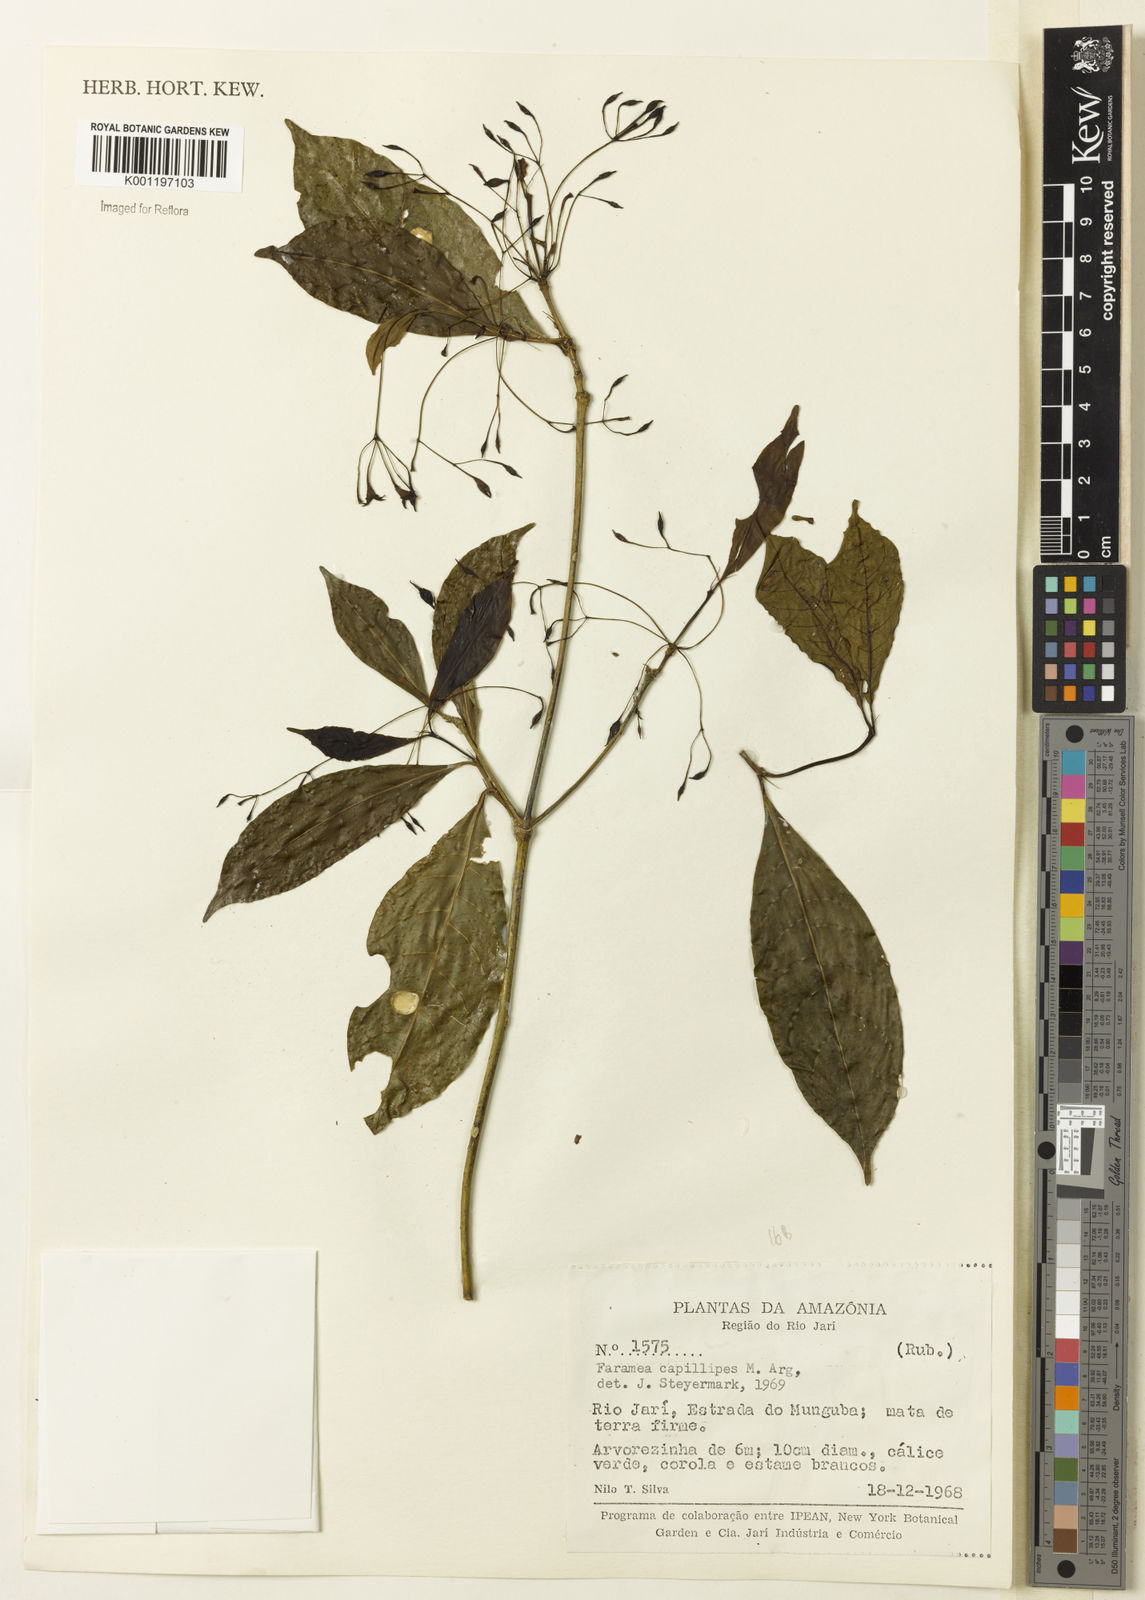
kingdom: Plantae
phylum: Tracheophyta
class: Magnoliopsida
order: Gentianales
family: Rubiaceae
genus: Faramea
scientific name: Faramea
